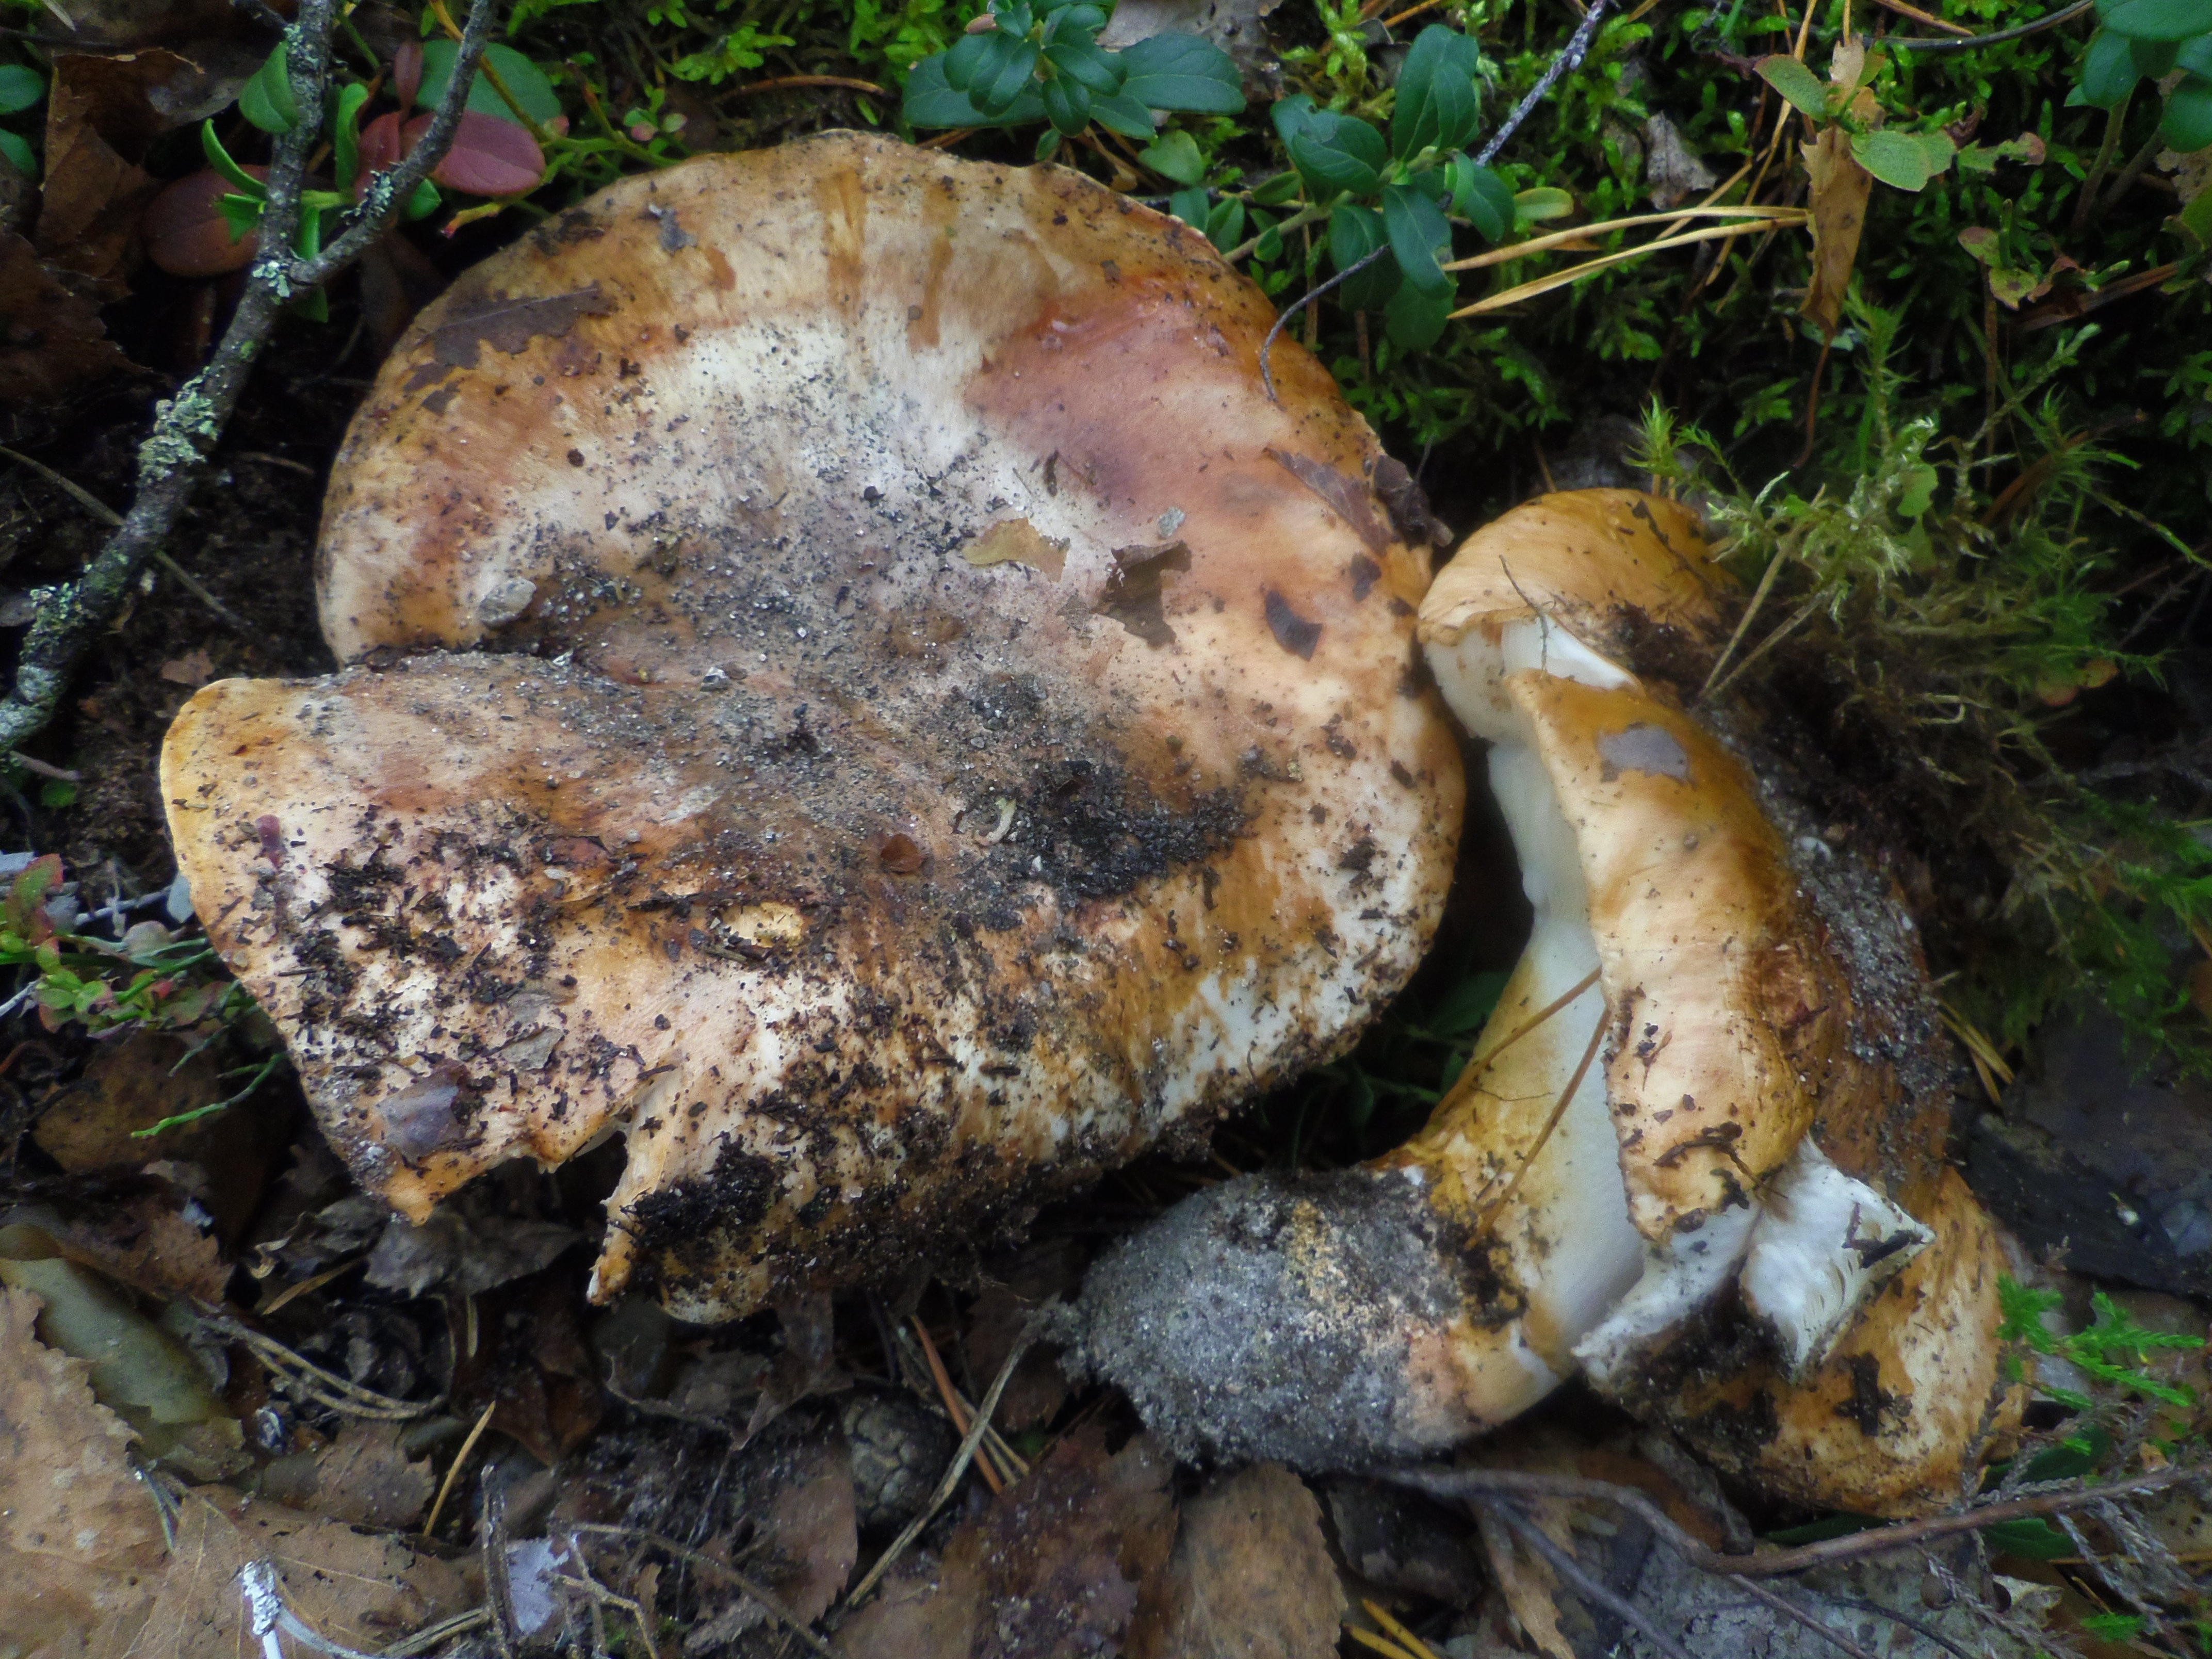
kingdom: Fungi
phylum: Basidiomycota
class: Agaricomycetes
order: Agaricales
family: Tricholomataceae
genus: Tricholoma
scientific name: Tricholoma colossus
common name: Giant knight
